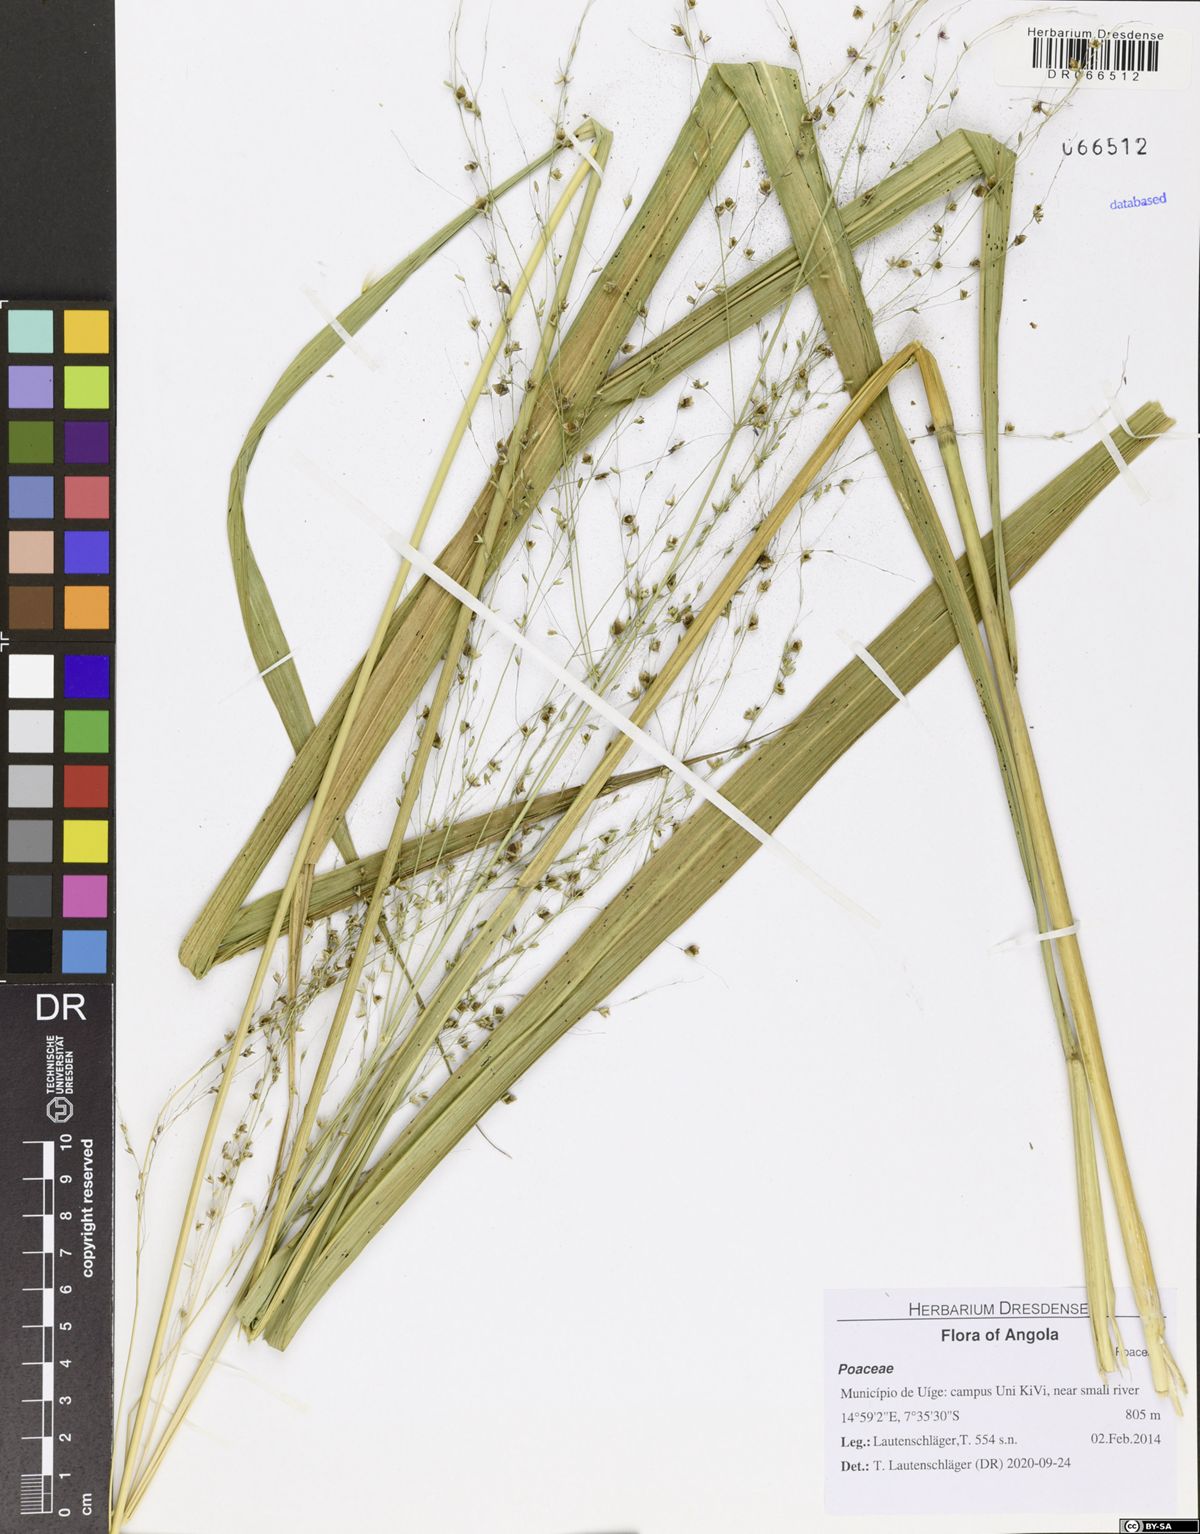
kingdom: Plantae
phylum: Tracheophyta
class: Liliopsida
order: Poales
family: Poaceae
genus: Megathyrsus
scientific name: Megathyrsus maximus
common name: Guineagrass
